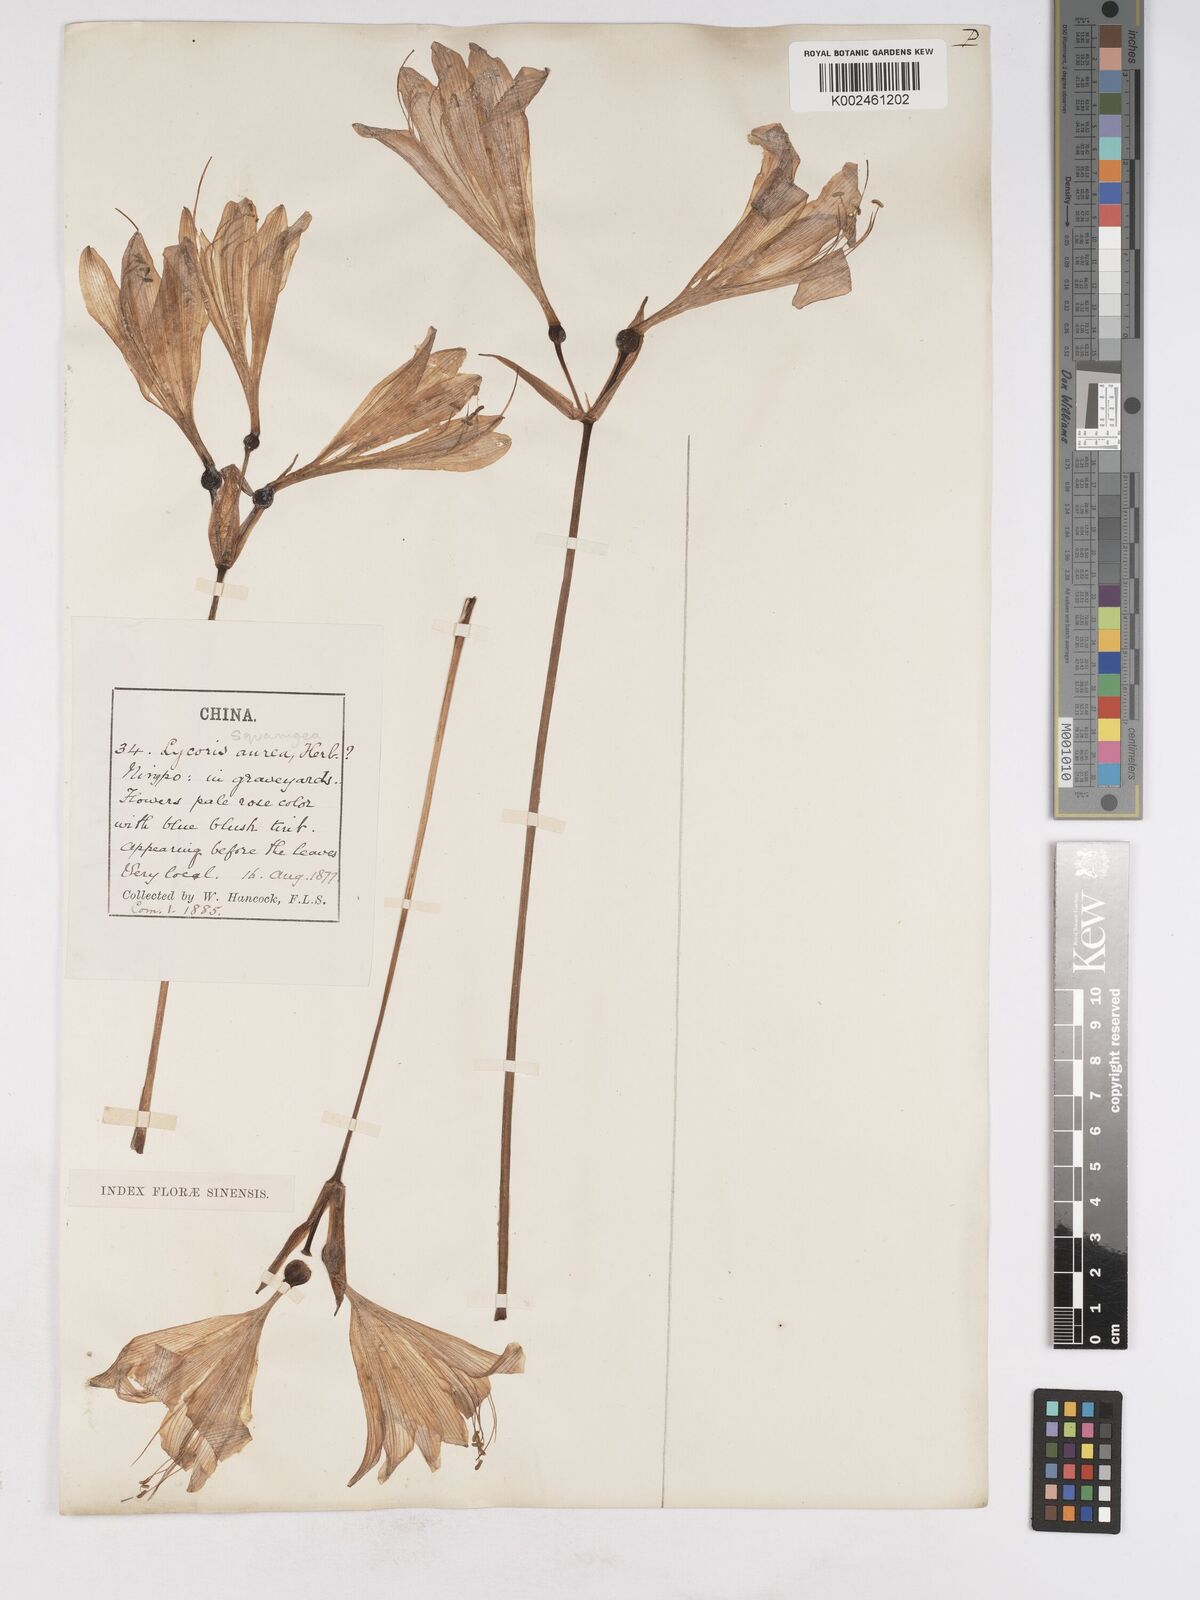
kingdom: Plantae
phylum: Tracheophyta
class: Liliopsida
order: Asparagales
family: Amaryllidaceae
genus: Lycoris
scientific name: Lycoris squamigera
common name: Magic-lily
